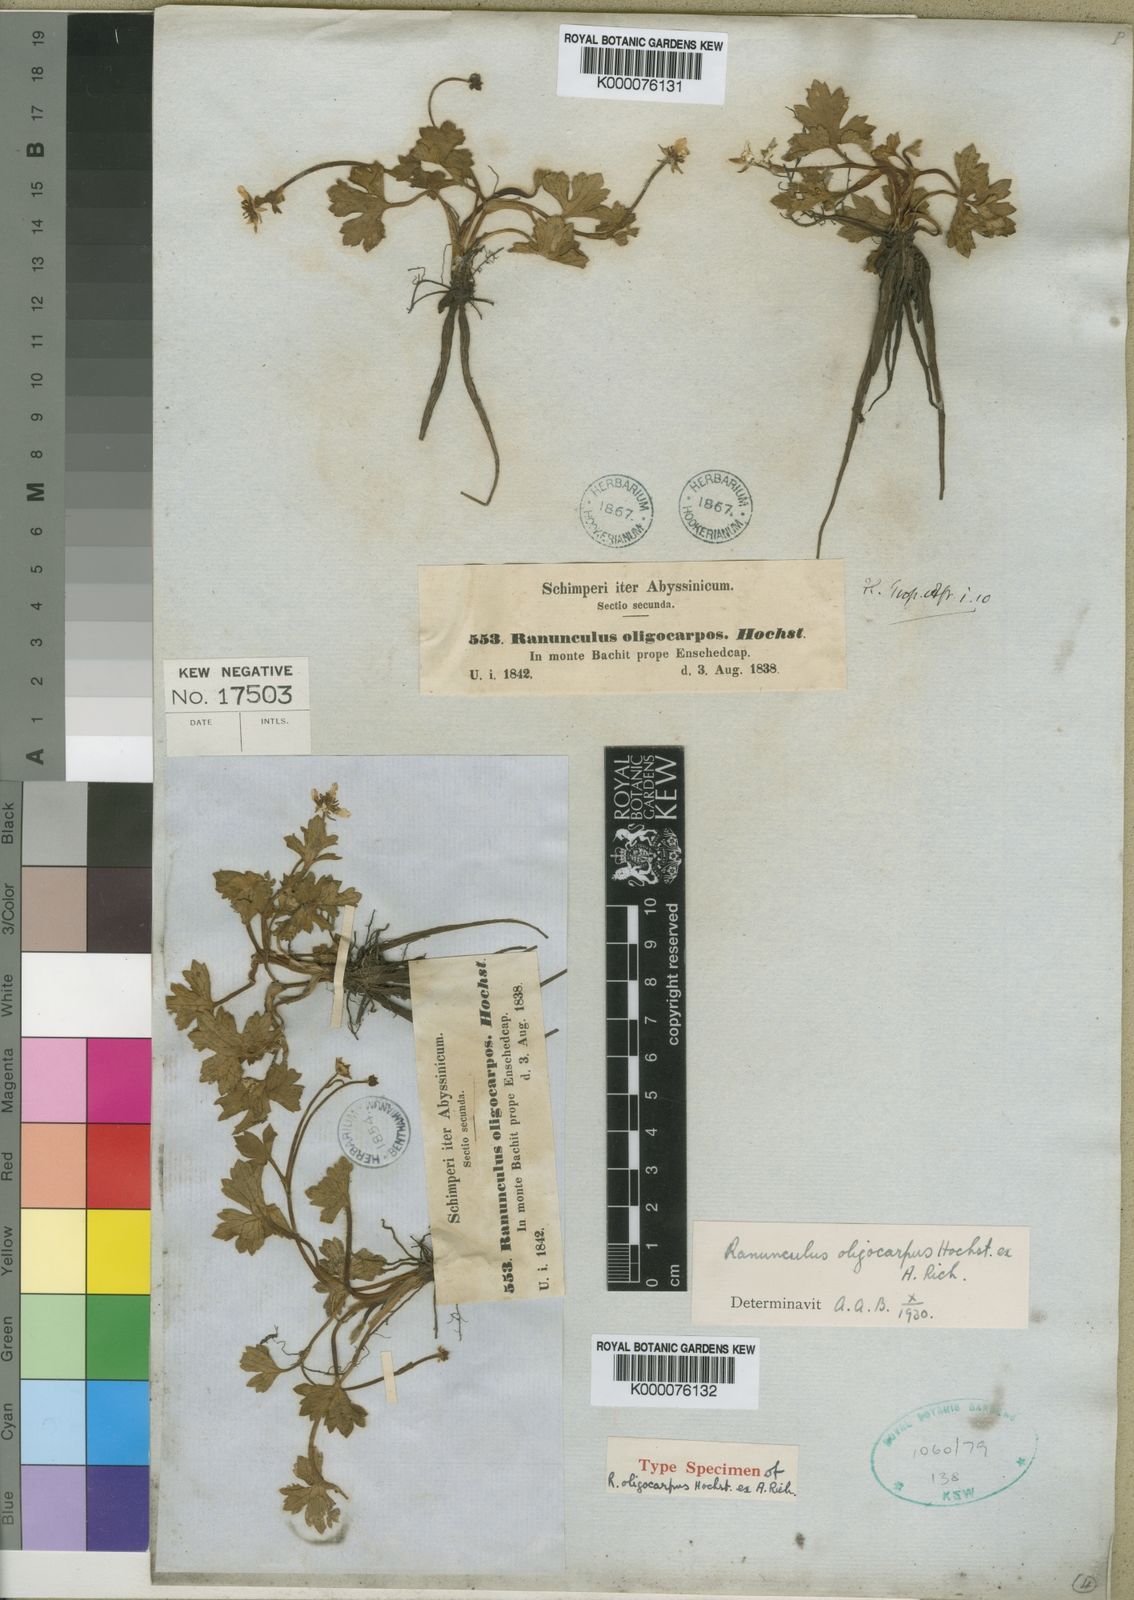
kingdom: Plantae
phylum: Tracheophyta
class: Magnoliopsida
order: Ranunculales
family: Ranunculaceae
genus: Ranunculus
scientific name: Ranunculus
